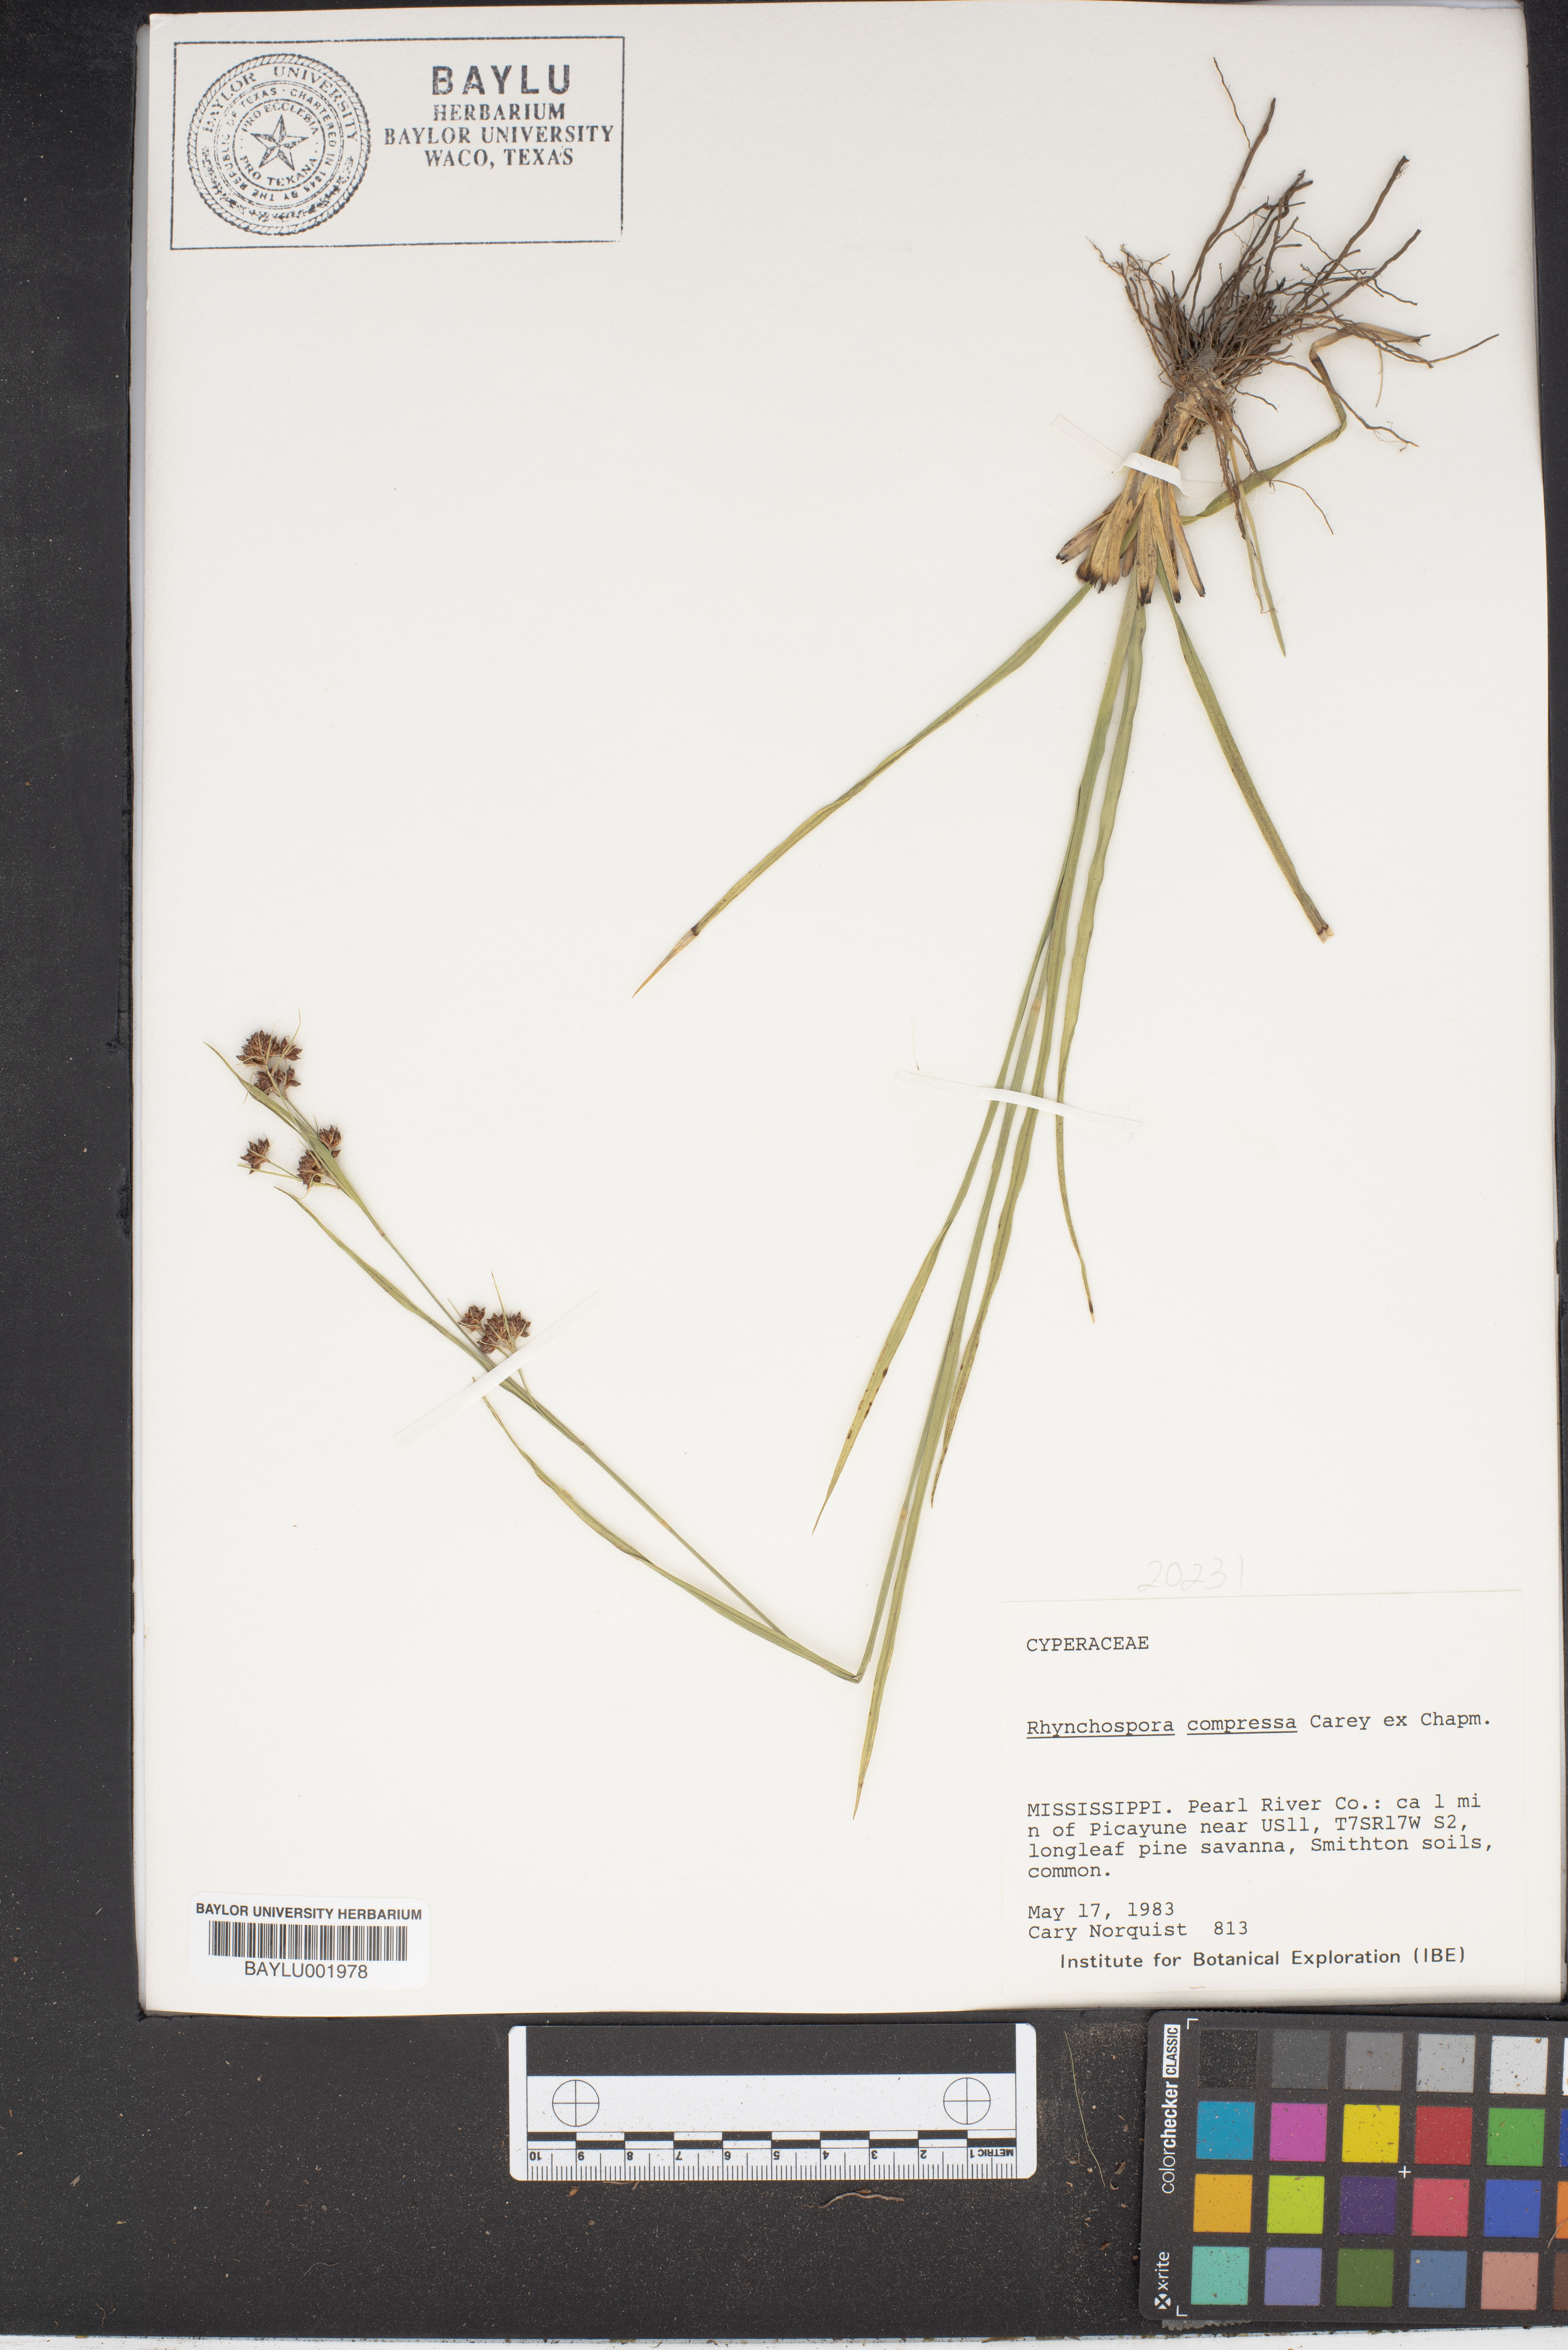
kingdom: Plantae
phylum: Tracheophyta
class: Liliopsida
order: Poales
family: Cyperaceae
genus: Rhynchospora
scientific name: Rhynchospora compressa
